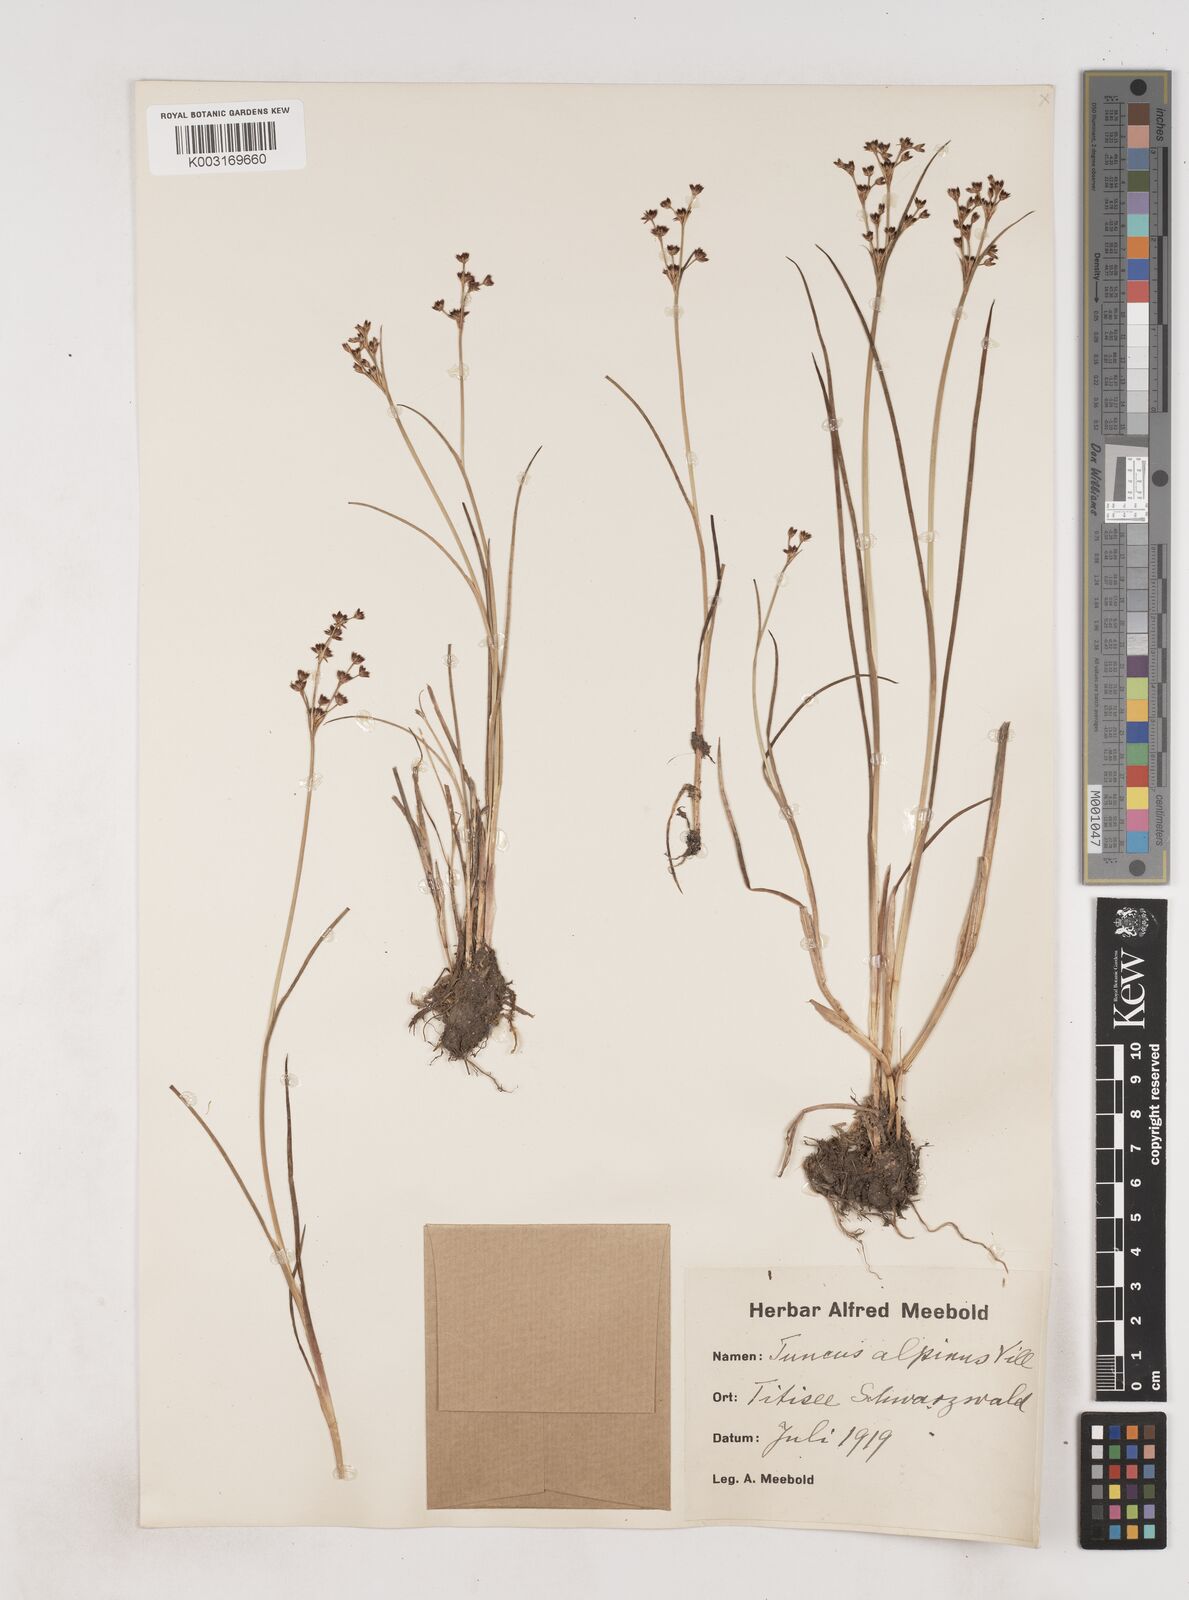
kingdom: Plantae
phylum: Tracheophyta
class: Liliopsida
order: Poales
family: Juncaceae
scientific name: Juncaceae
